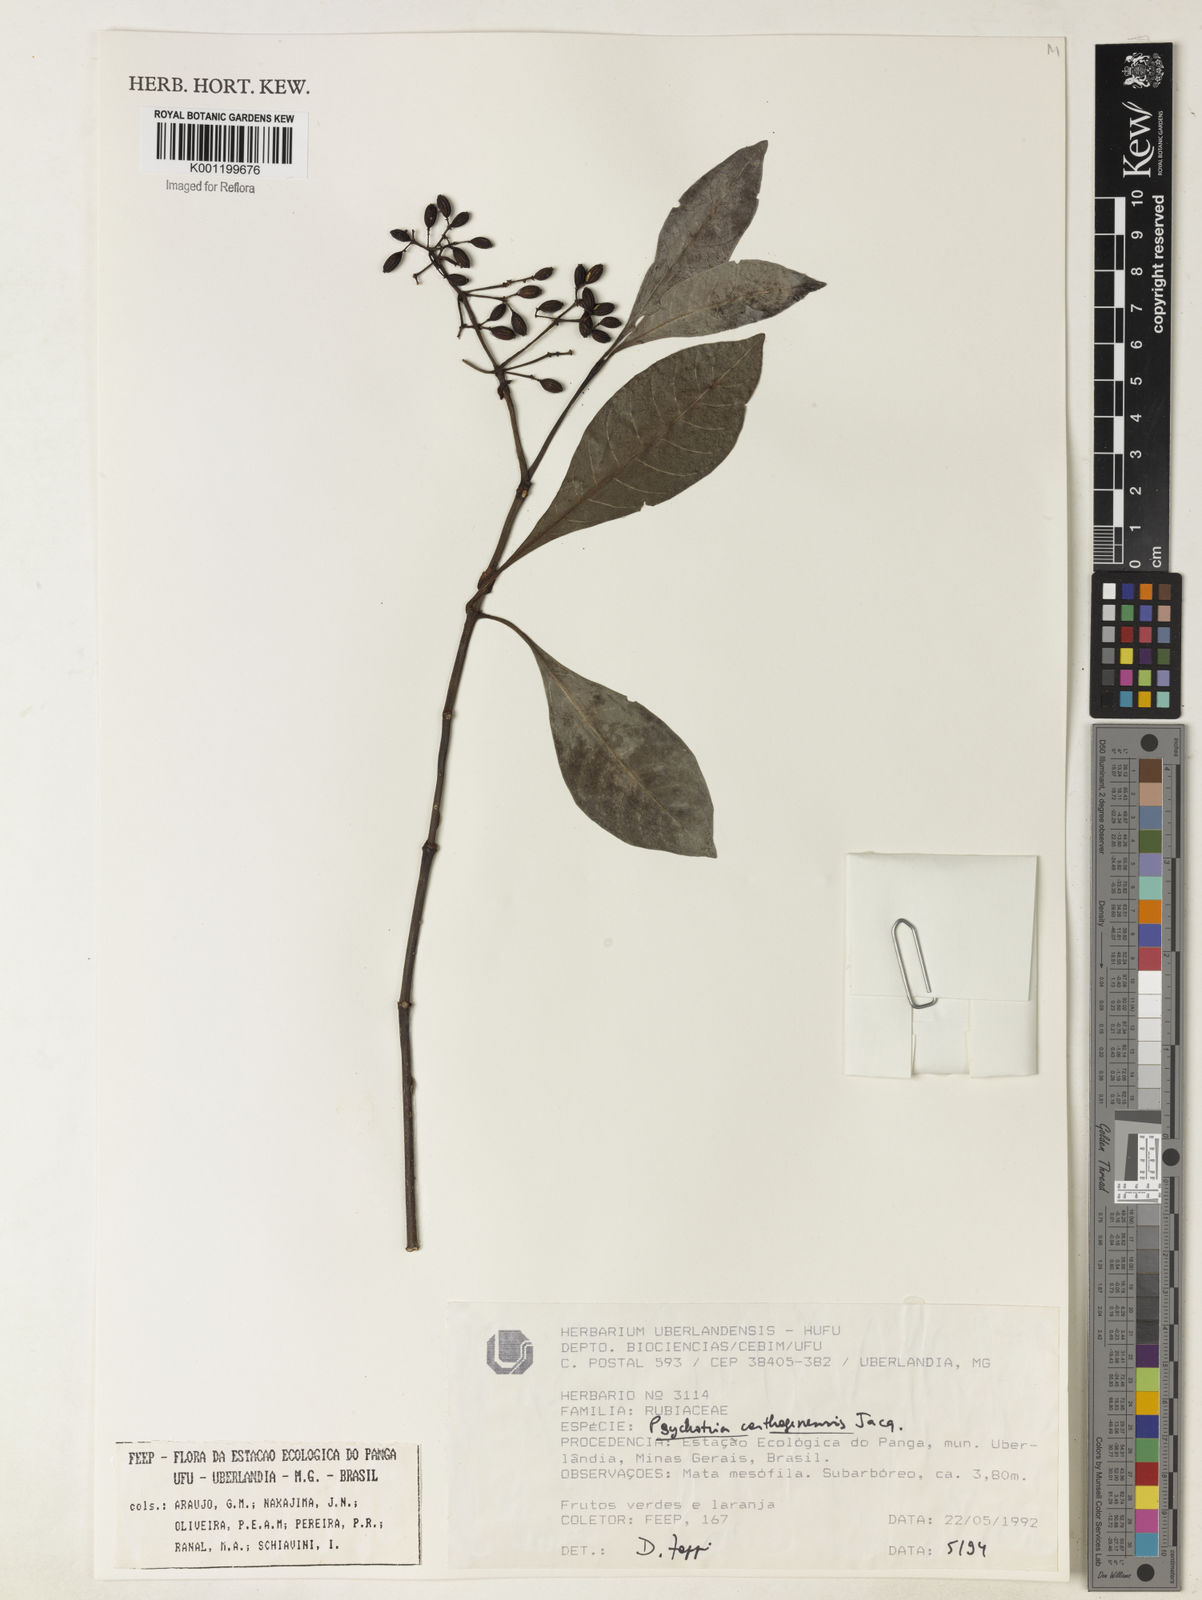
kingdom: Plantae
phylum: Tracheophyta
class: Magnoliopsida
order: Gentianales
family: Rubiaceae
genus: Psychotria
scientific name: Psychotria carthagenensis
